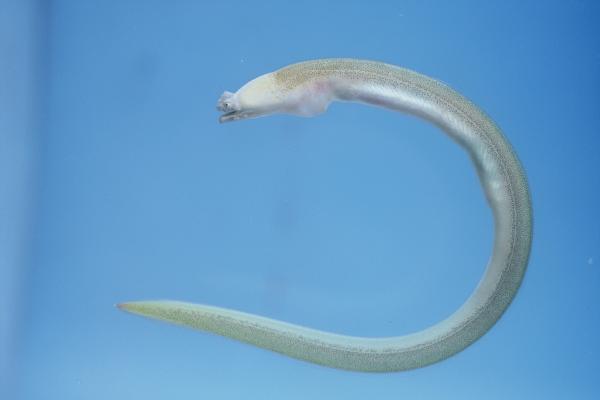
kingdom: Animalia
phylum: Chordata
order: Anguilliformes
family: Ophichthidae
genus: Brachysomophis
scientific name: Brachysomophis crocodilinus
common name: Crocodile snake eel
